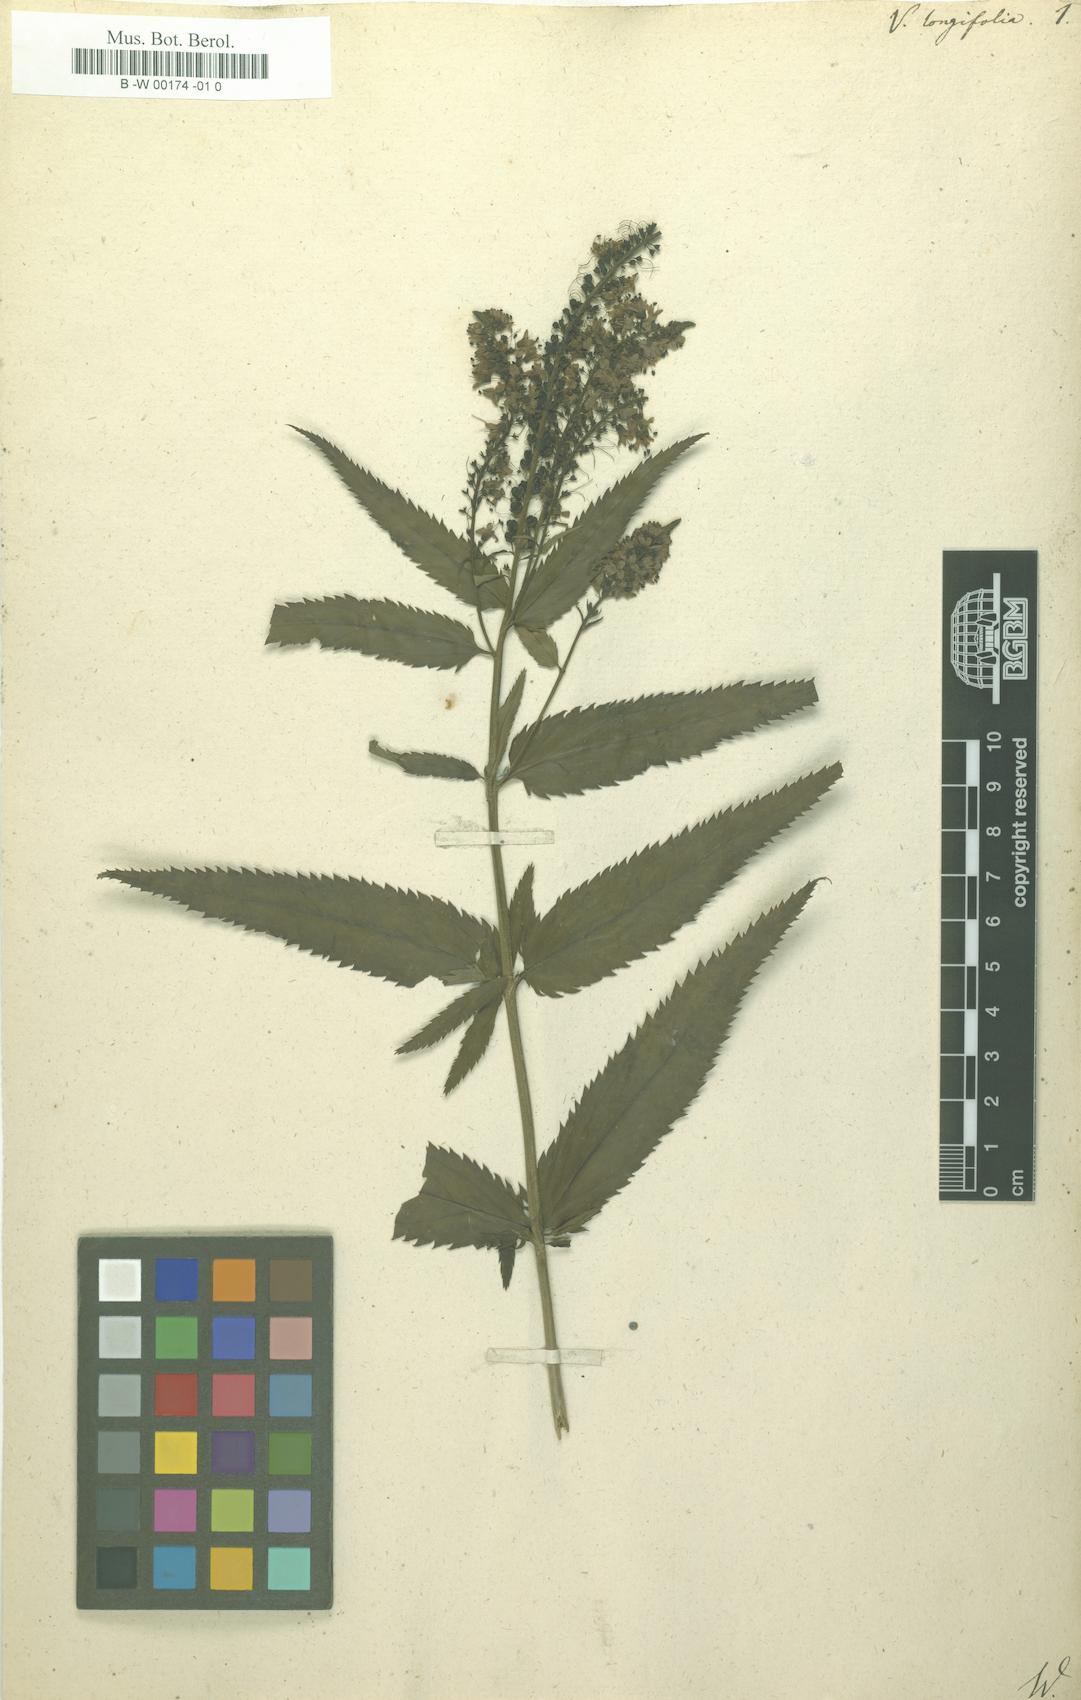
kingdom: Plantae
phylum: Tracheophyta
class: Magnoliopsida
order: Lamiales
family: Plantaginaceae
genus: Veronica
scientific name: Veronica longifolia
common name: Garden speedwell
